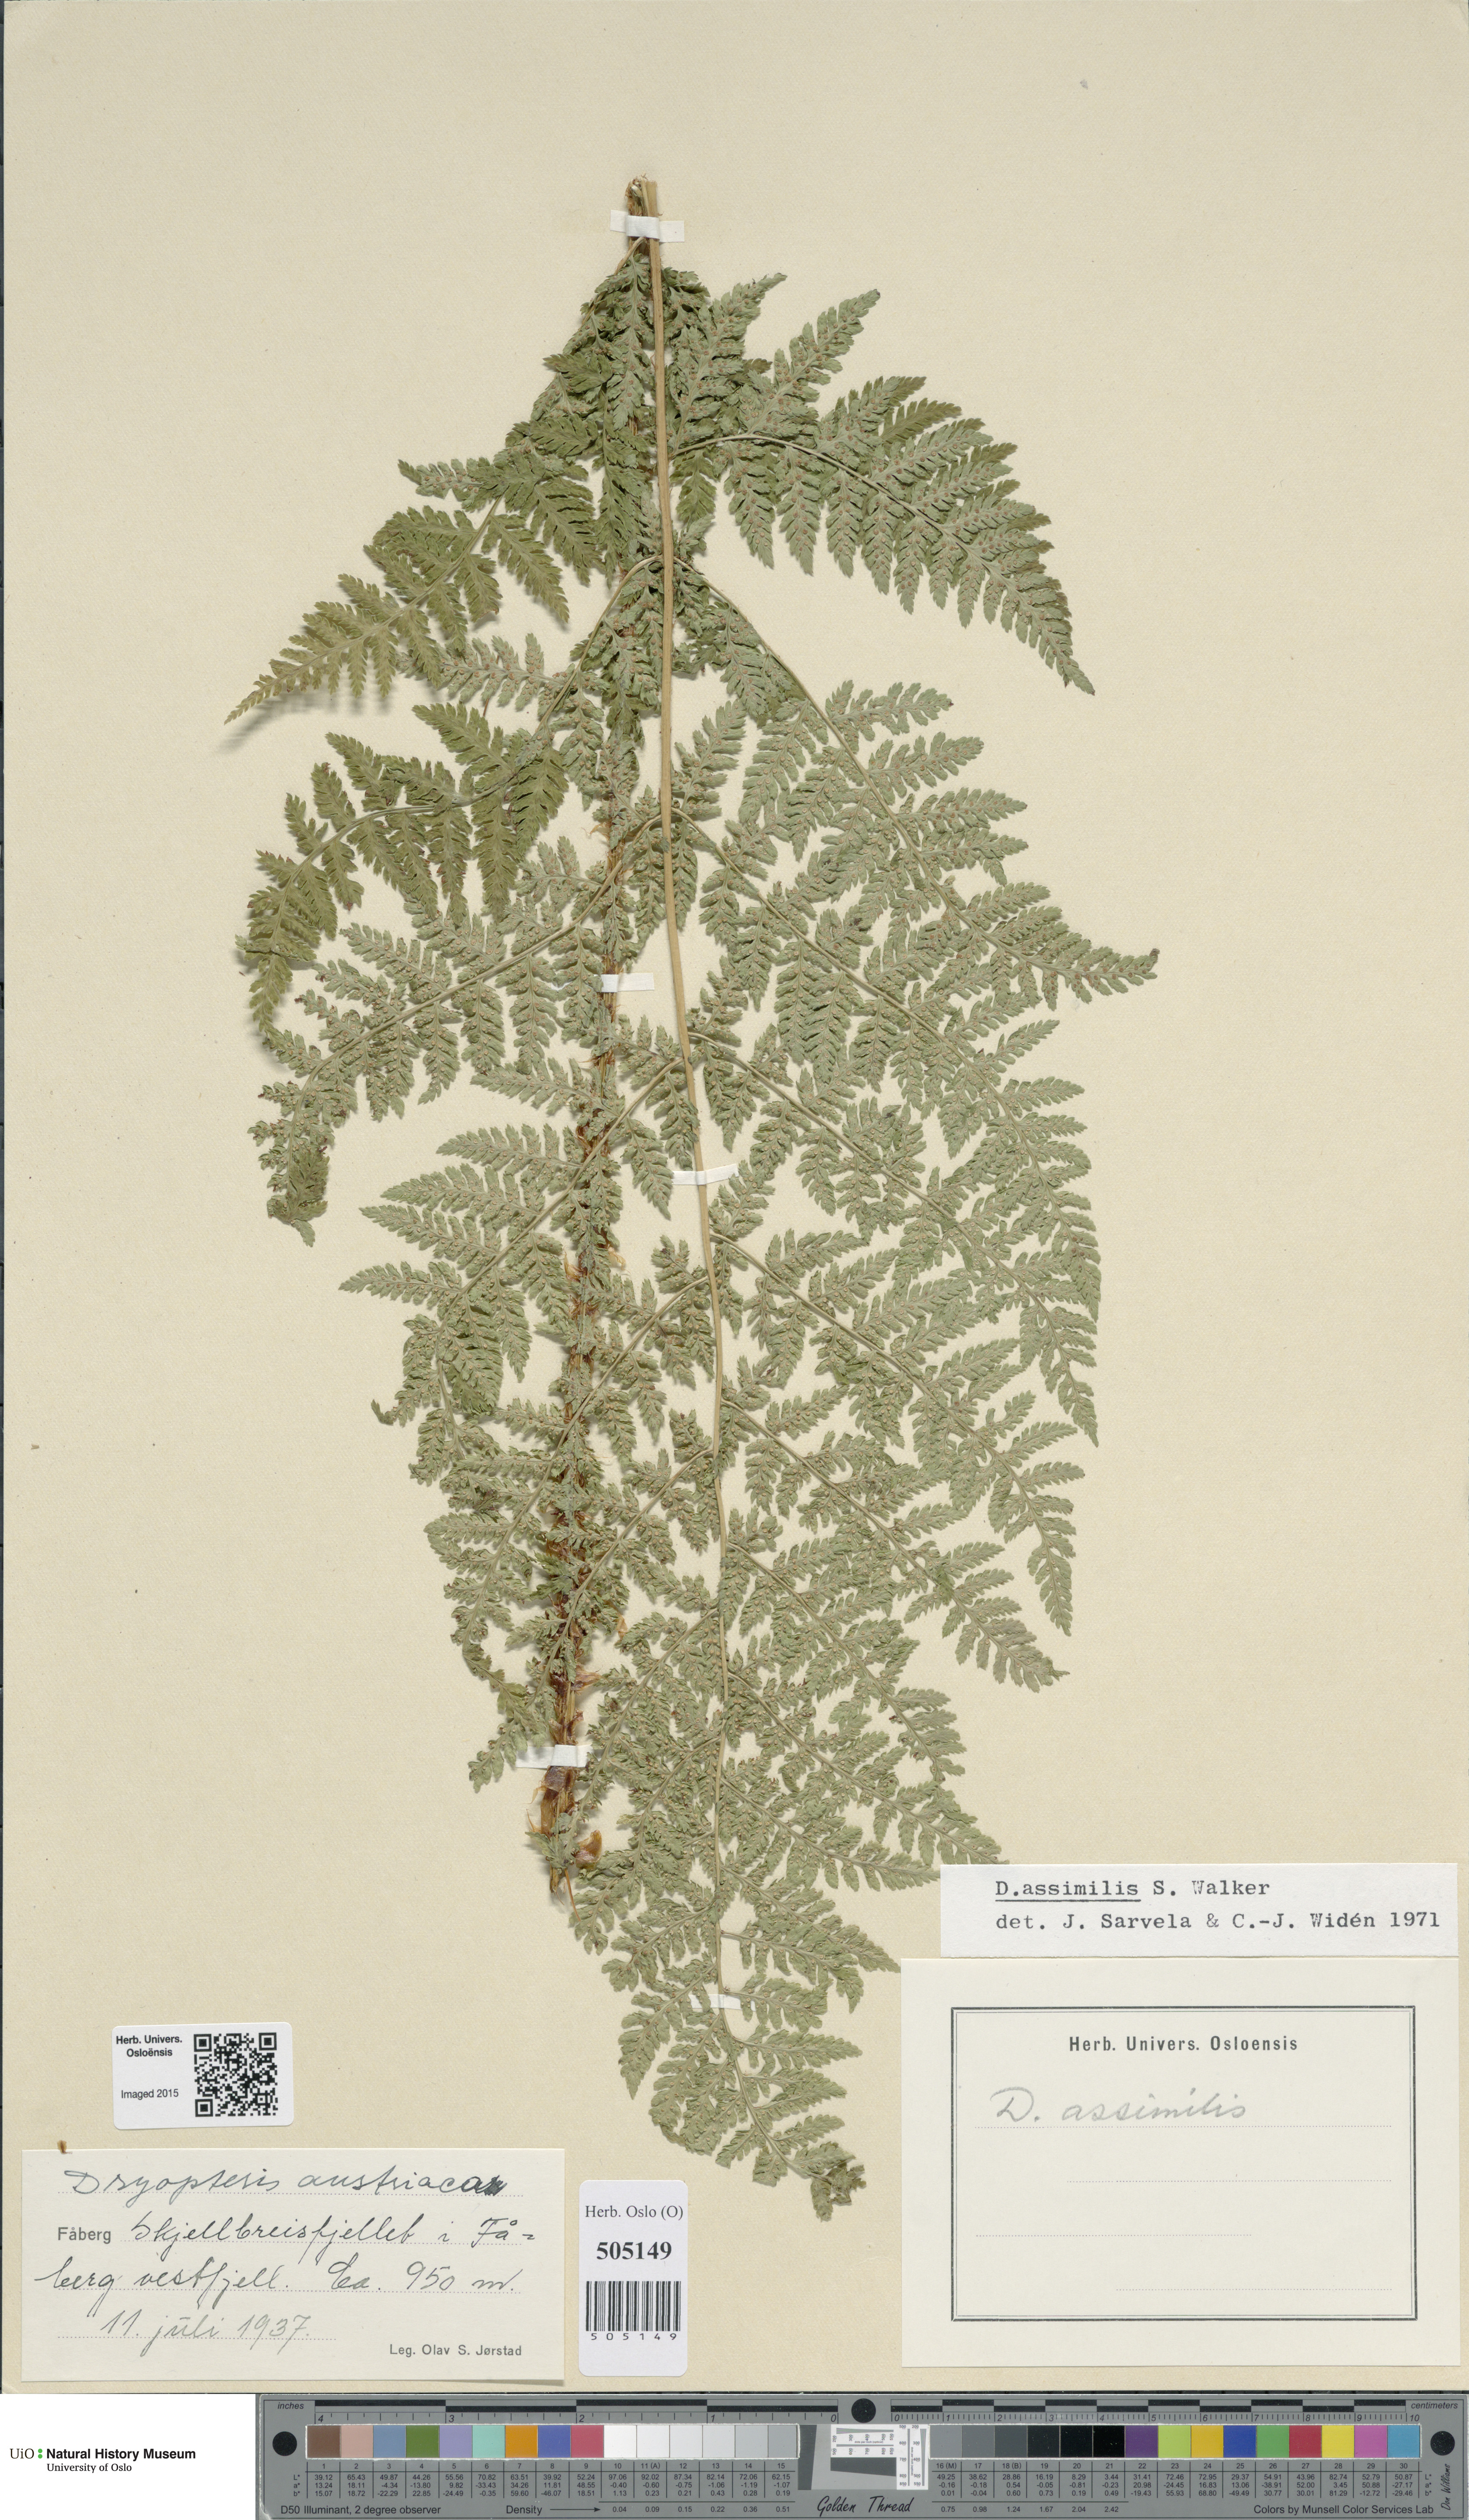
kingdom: Plantae
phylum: Tracheophyta
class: Polypodiopsida
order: Polypodiales
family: Dryopteridaceae
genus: Dryopteris
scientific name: Dryopteris expansa
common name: Northern buckler fern
